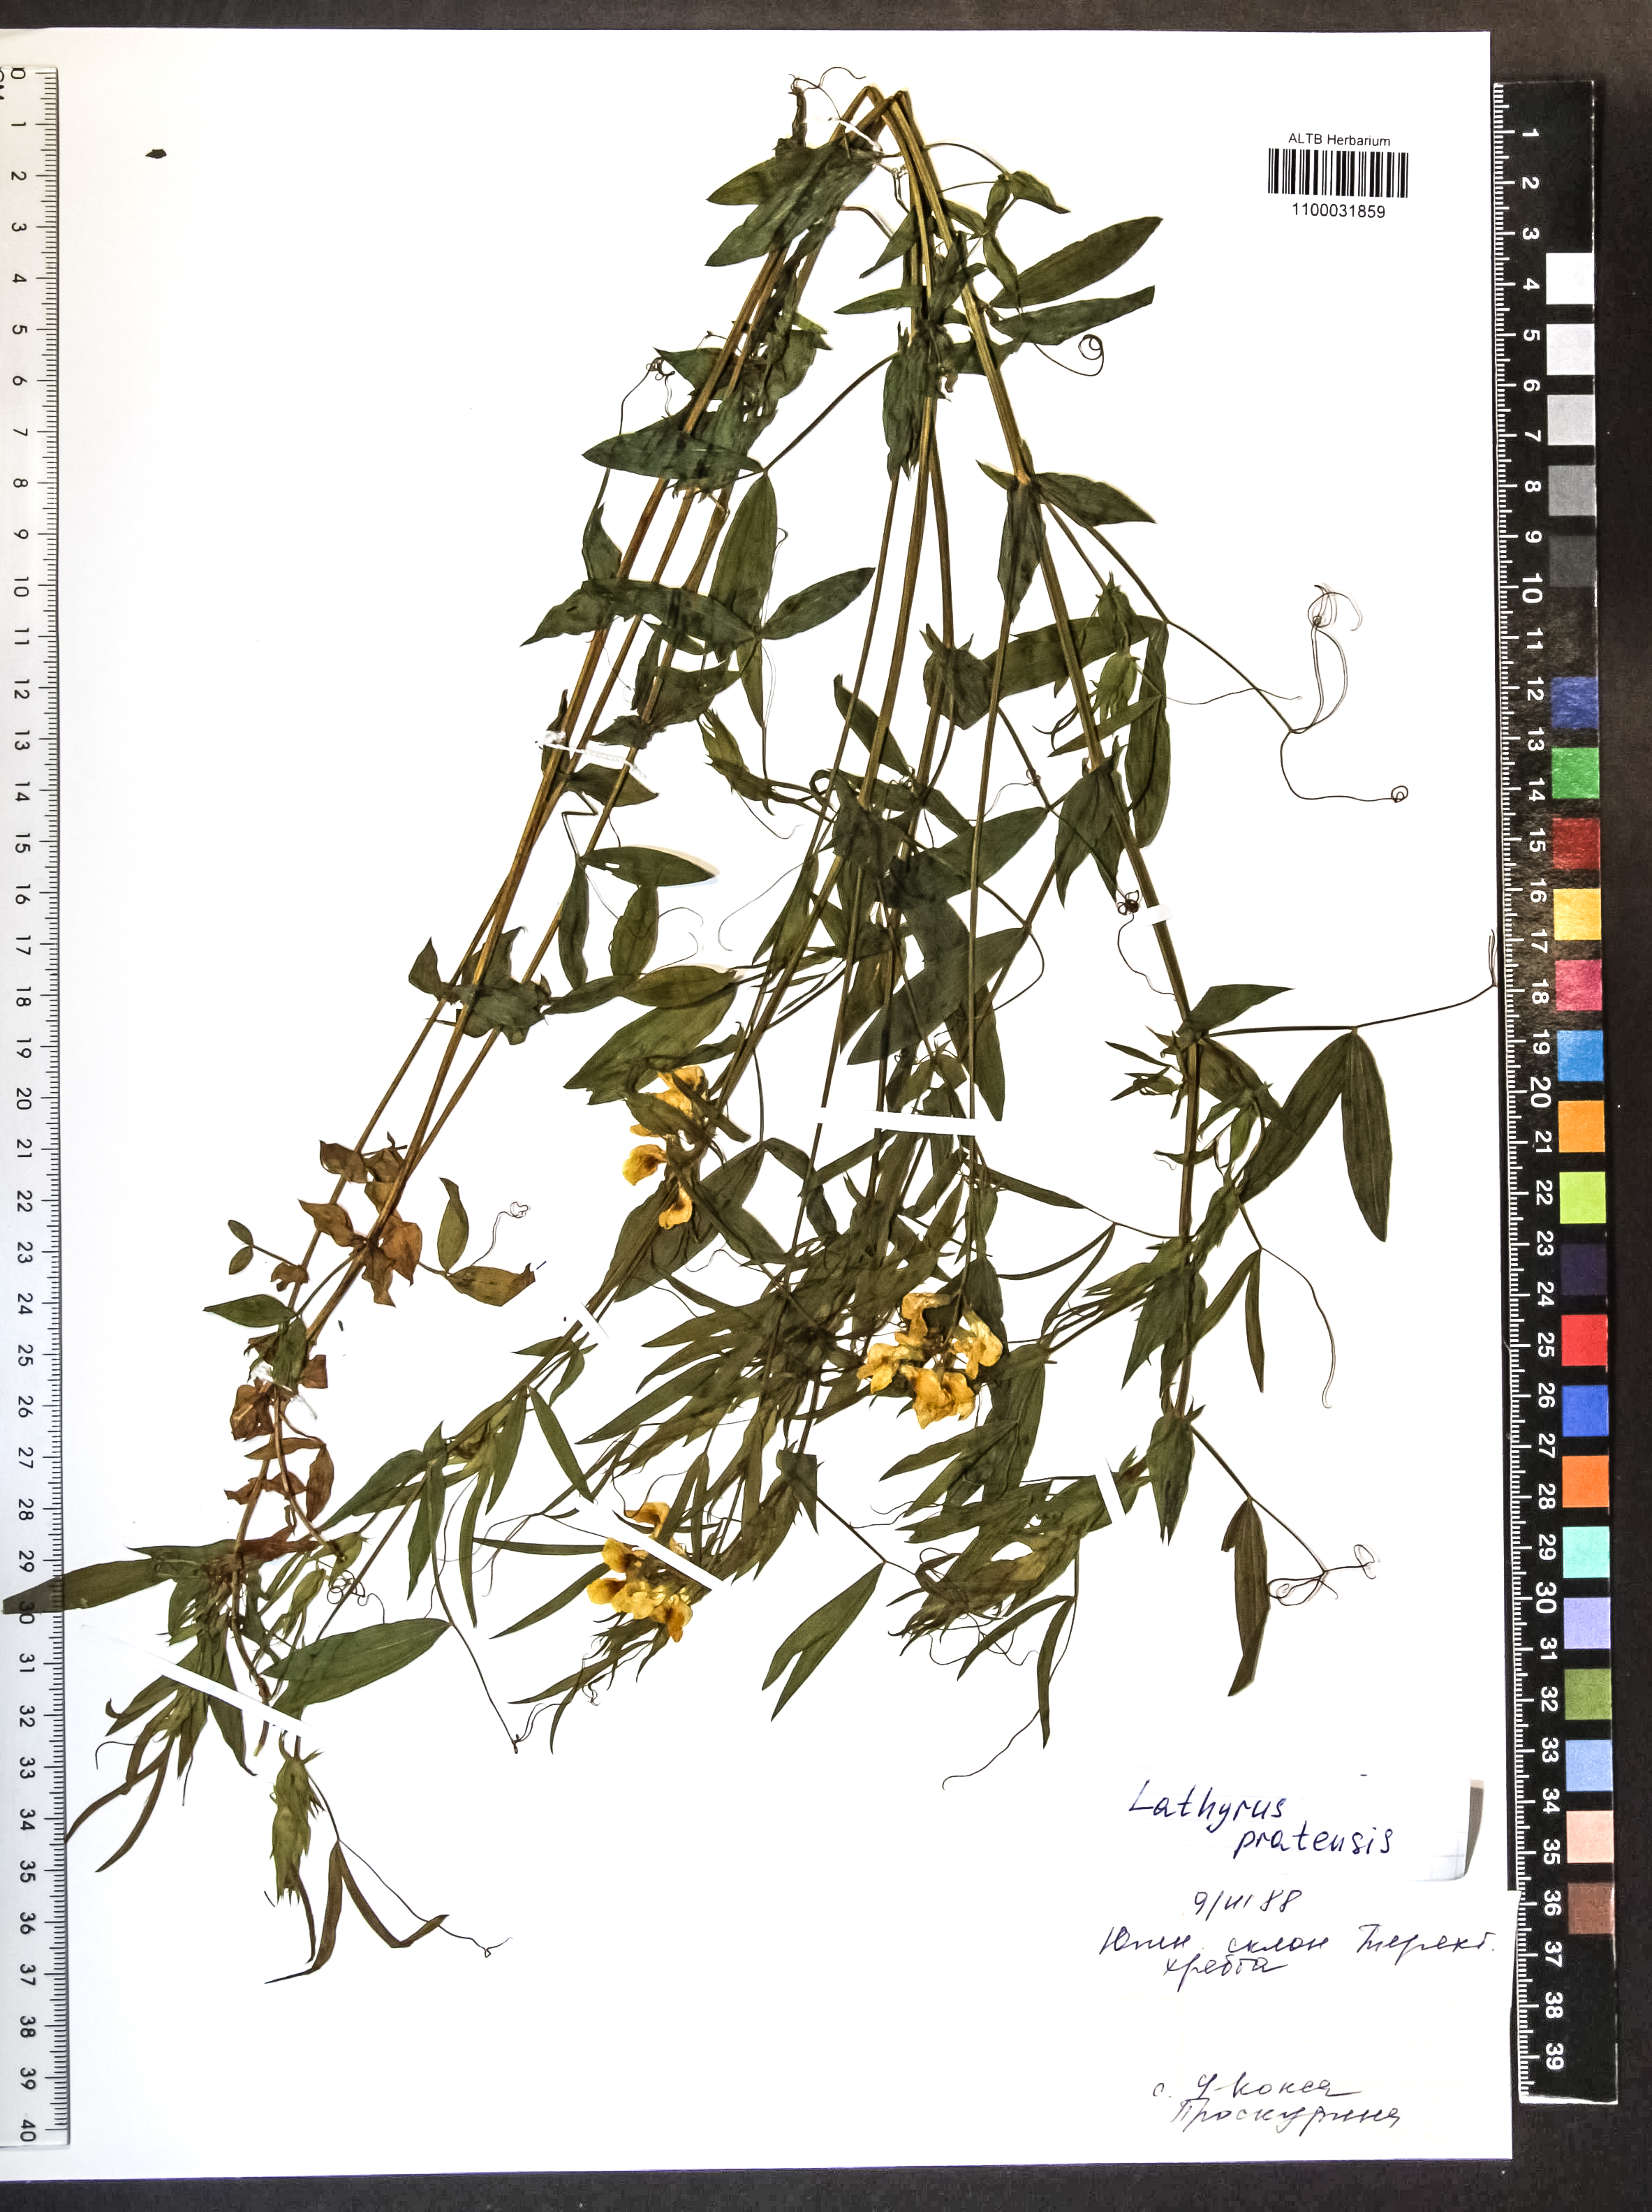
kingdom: Plantae
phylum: Tracheophyta
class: Magnoliopsida
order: Fabales
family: Fabaceae
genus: Lathyrus
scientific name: Lathyrus pratensis
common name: Meadow vetchling
